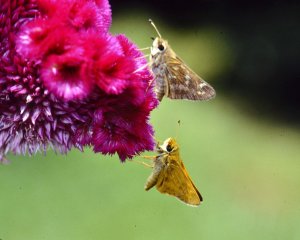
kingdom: Animalia
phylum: Arthropoda
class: Insecta
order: Lepidoptera
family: Hesperiidae
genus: Atalopedes
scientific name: Atalopedes campestris
